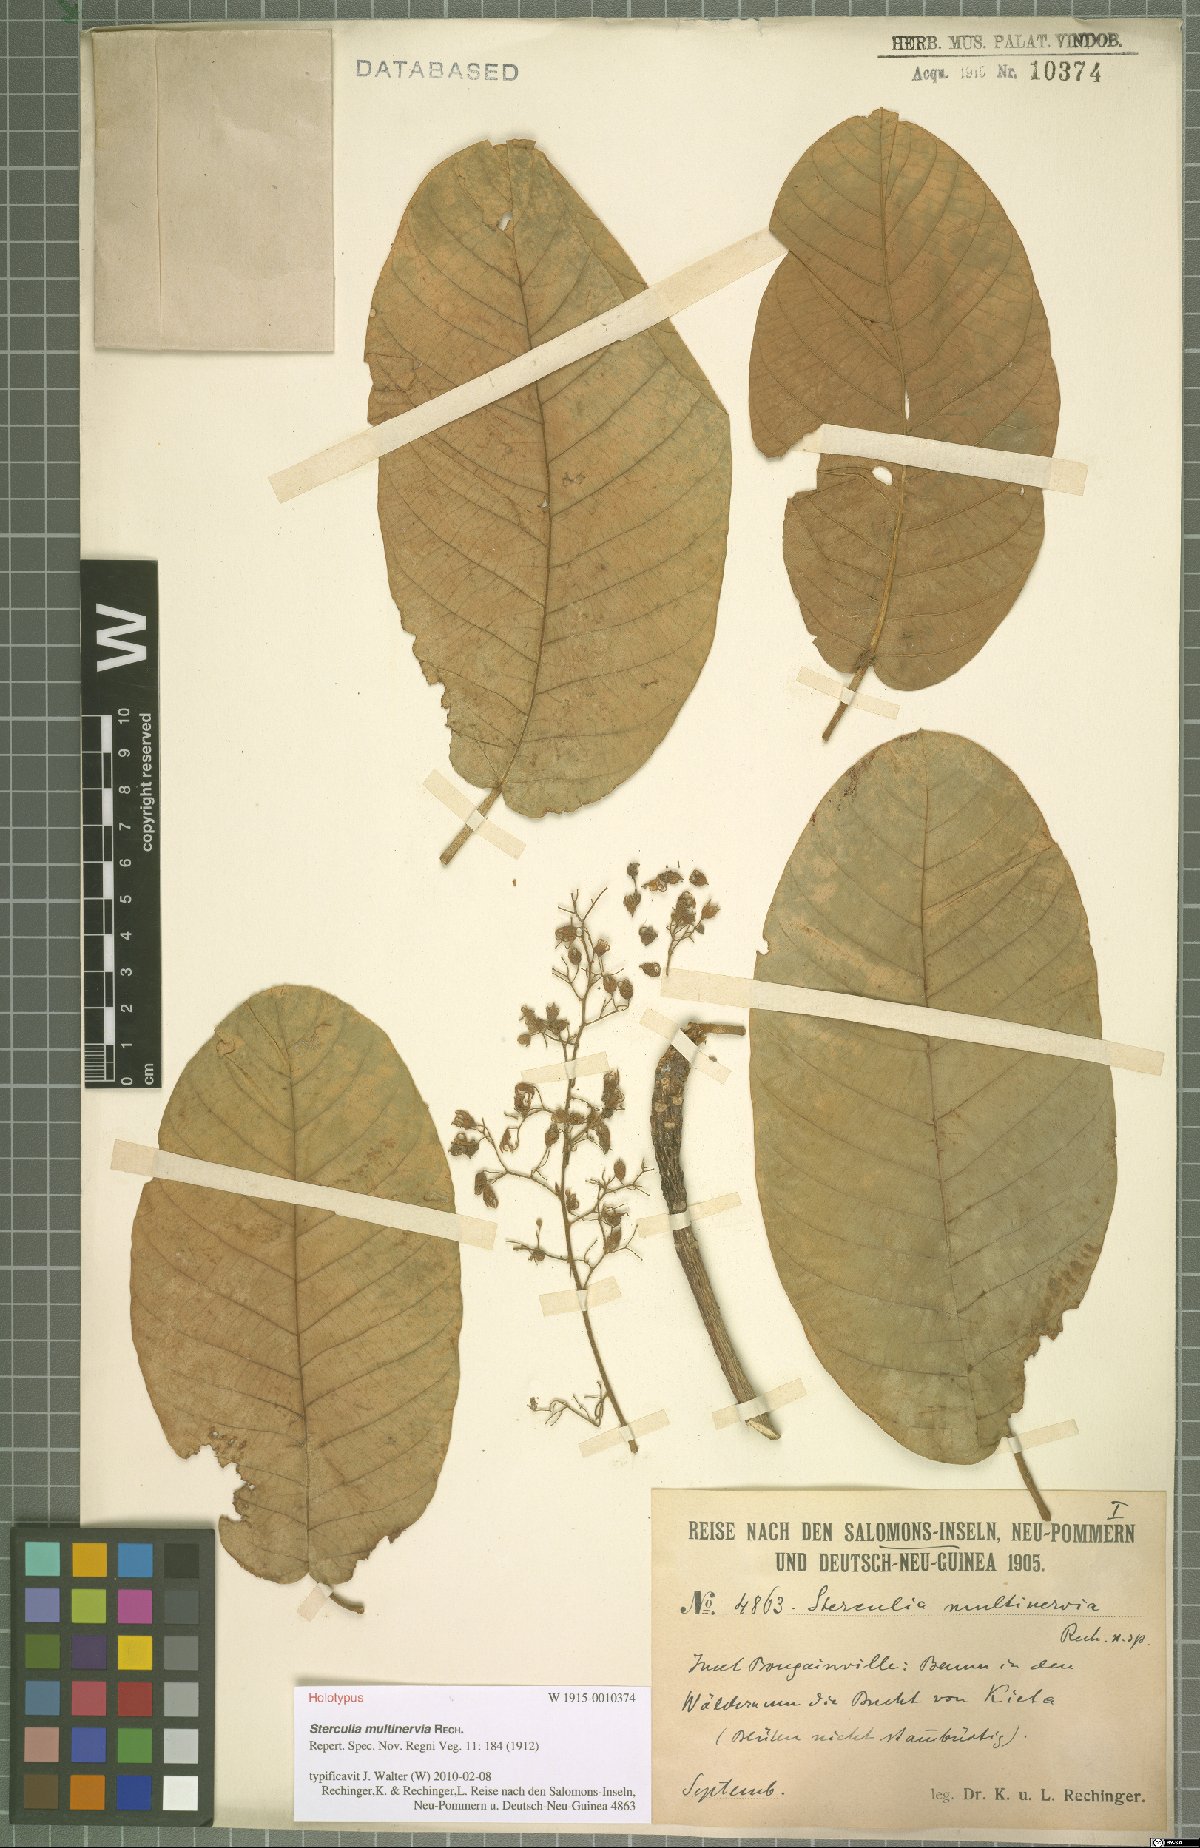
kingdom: Plantae
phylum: Tracheophyta
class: Magnoliopsida
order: Malvales
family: Malvaceae
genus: Sterculia
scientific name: Sterculia shillinglawii
